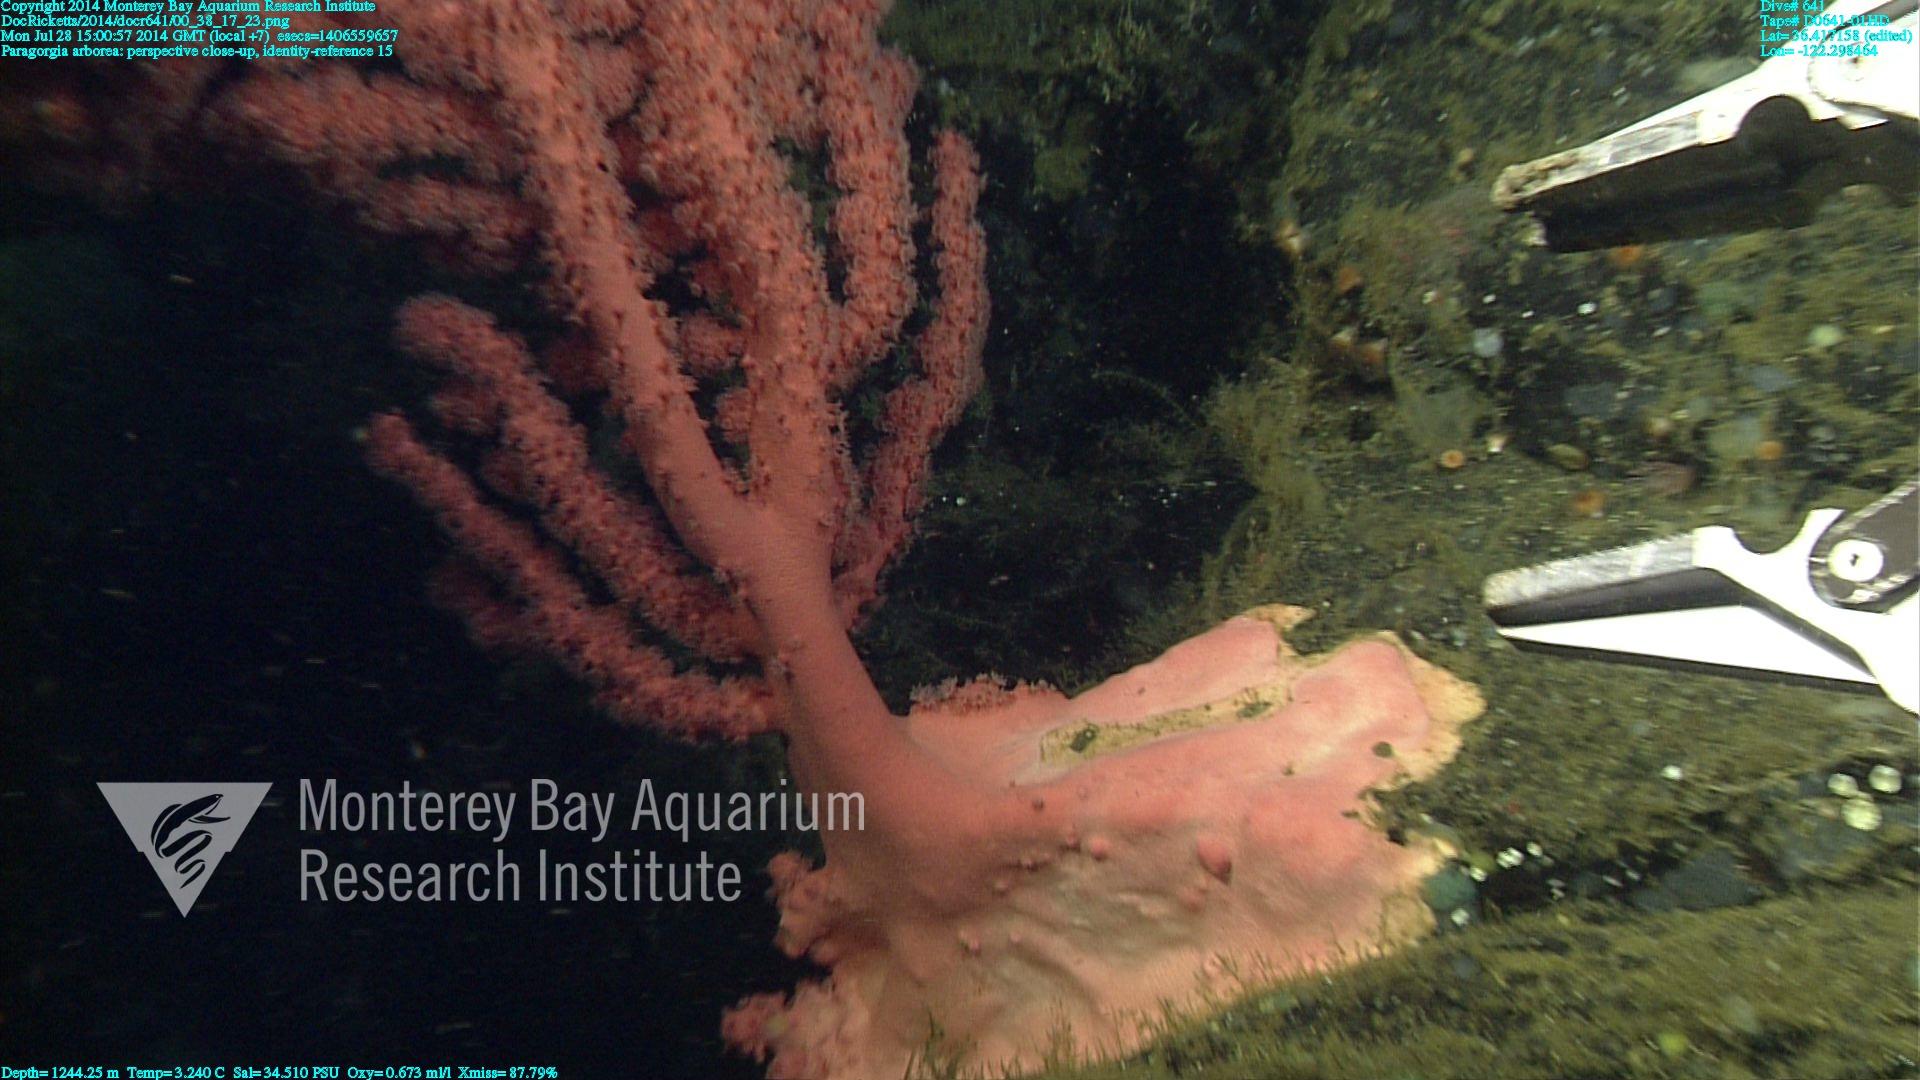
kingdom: Animalia
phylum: Cnidaria
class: Anthozoa
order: Scleralcyonacea
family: Coralliidae
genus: Paragorgia
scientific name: Paragorgia arborea
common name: Bubble gum coral
